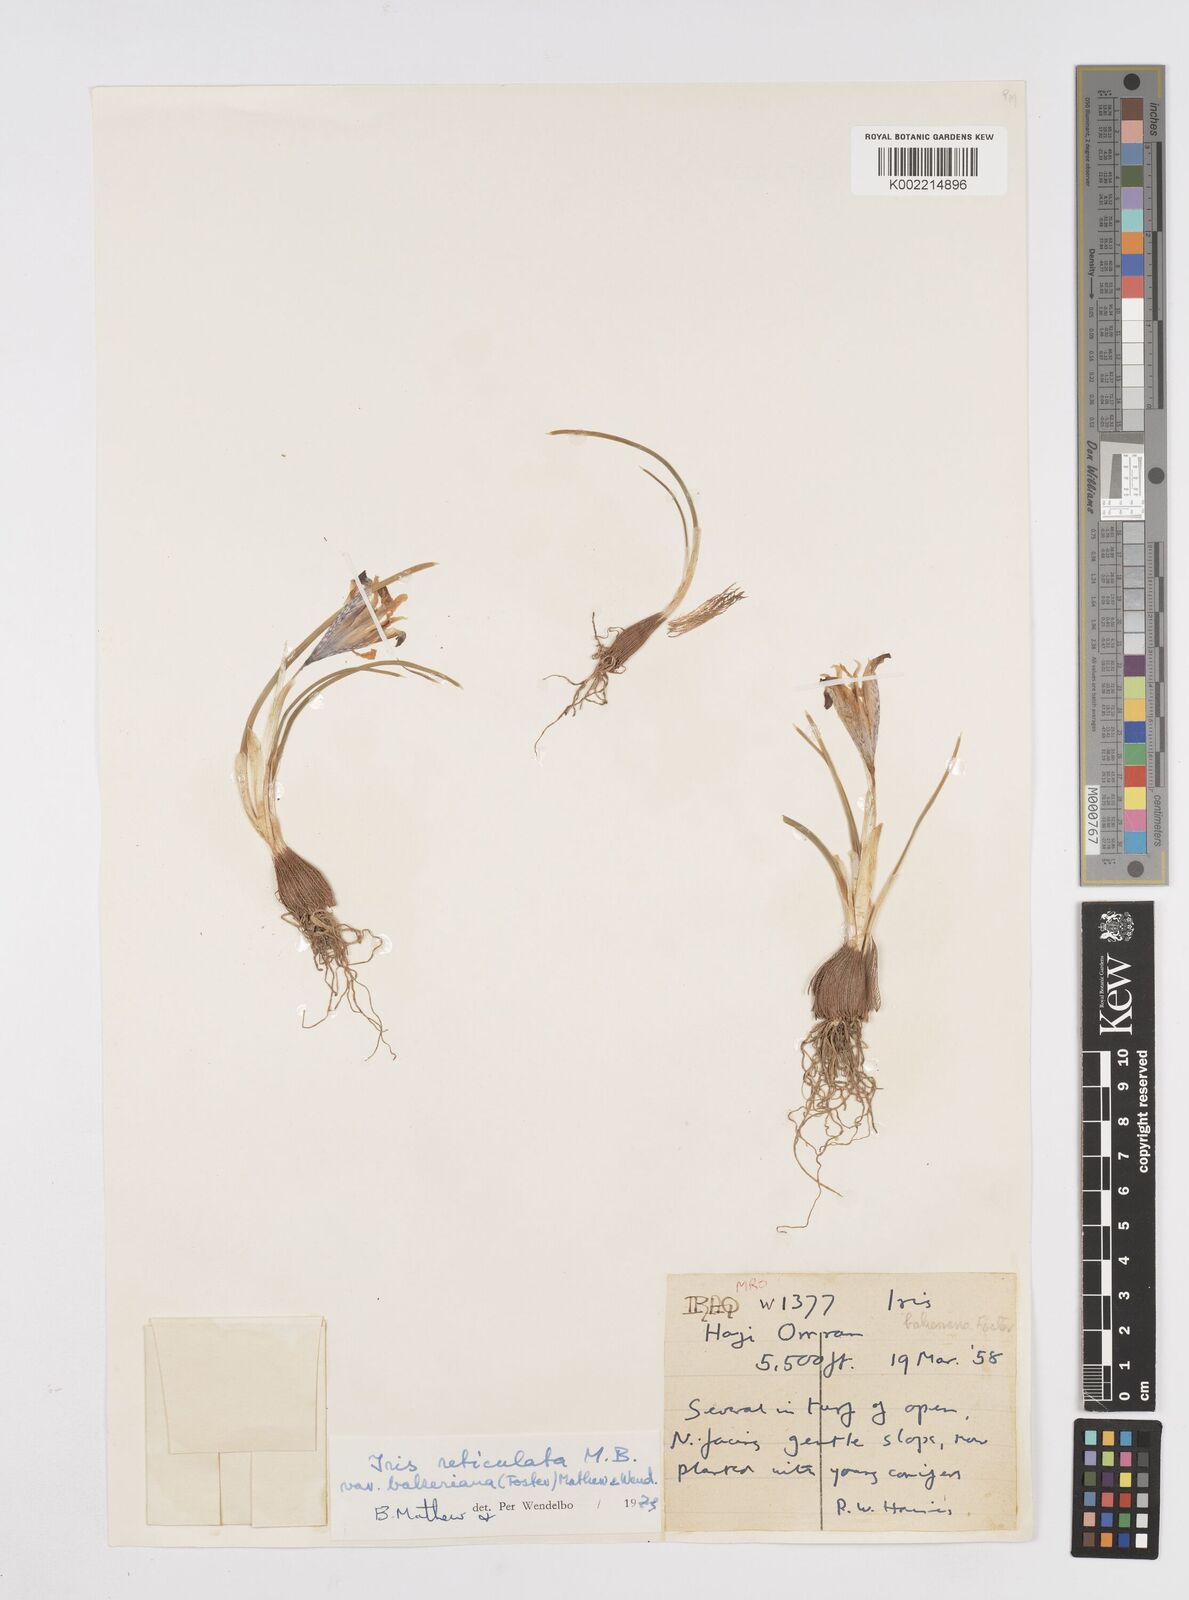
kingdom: Plantae
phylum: Tracheophyta
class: Liliopsida
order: Asparagales
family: Iridaceae
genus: Iris
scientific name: Iris reticulata
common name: Netted iris
